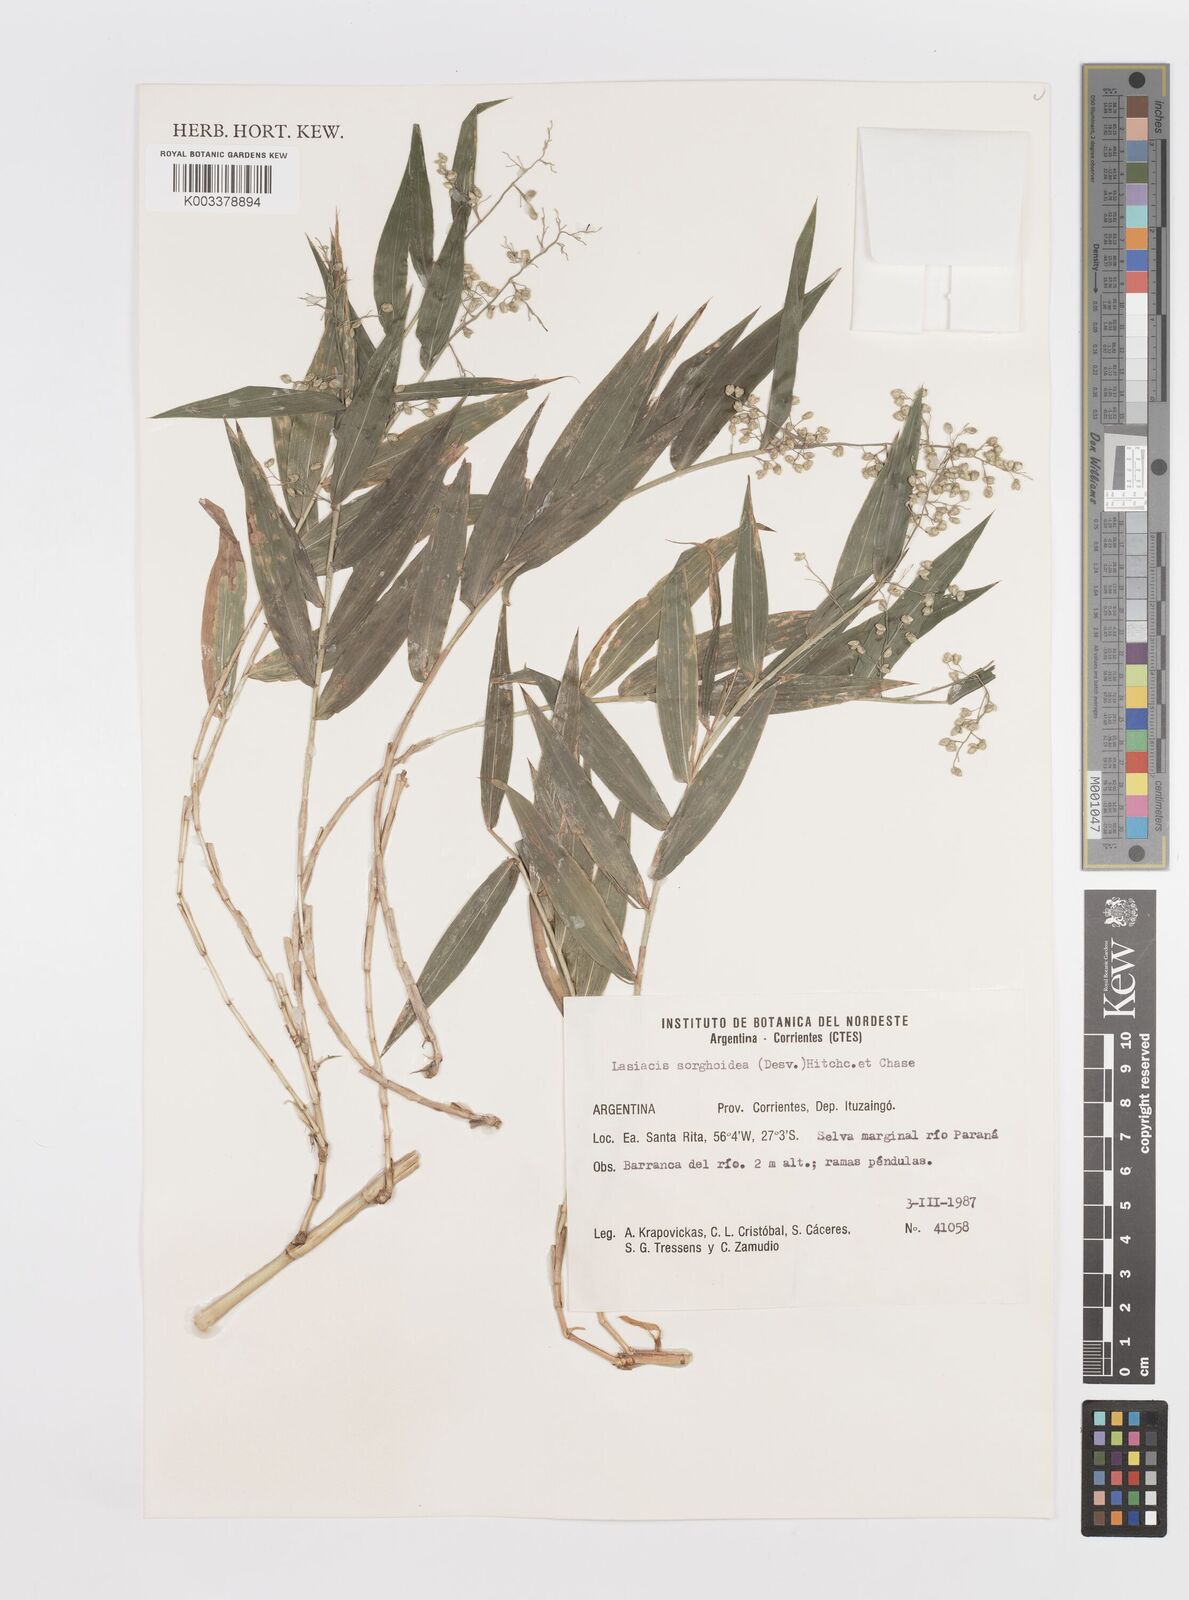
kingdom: Plantae
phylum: Tracheophyta
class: Liliopsida
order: Poales
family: Poaceae
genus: Lasiacis
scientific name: Lasiacis maculata
